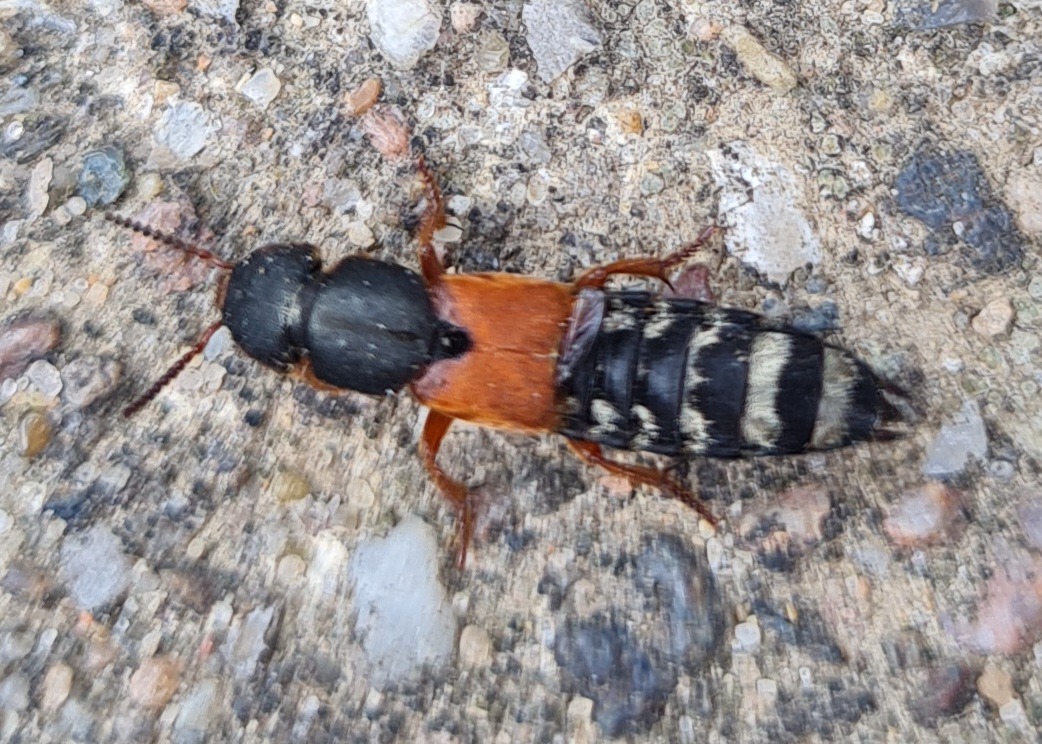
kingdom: Animalia
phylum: Arthropoda
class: Insecta
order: Coleoptera
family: Staphylinidae
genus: Platydracus
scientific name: Platydracus stercorarius
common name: Almindelig guldpletrovbille
